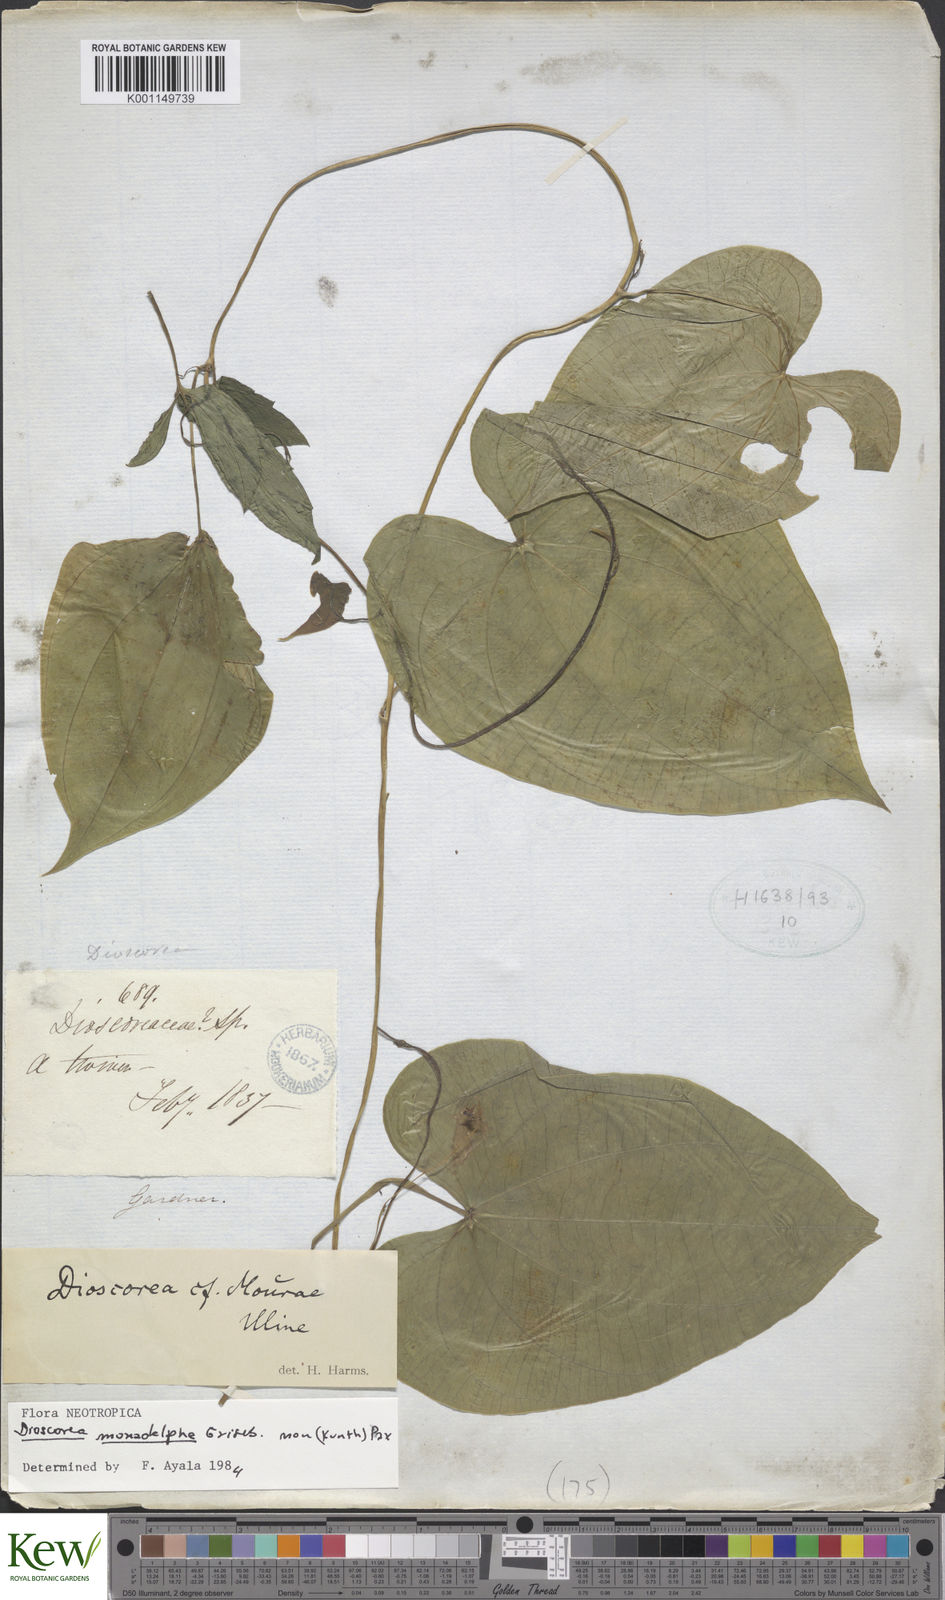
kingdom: Plantae
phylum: Tracheophyta
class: Liliopsida
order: Dioscoreales
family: Dioscoreaceae
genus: Dioscorea
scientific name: Dioscorea coronata
